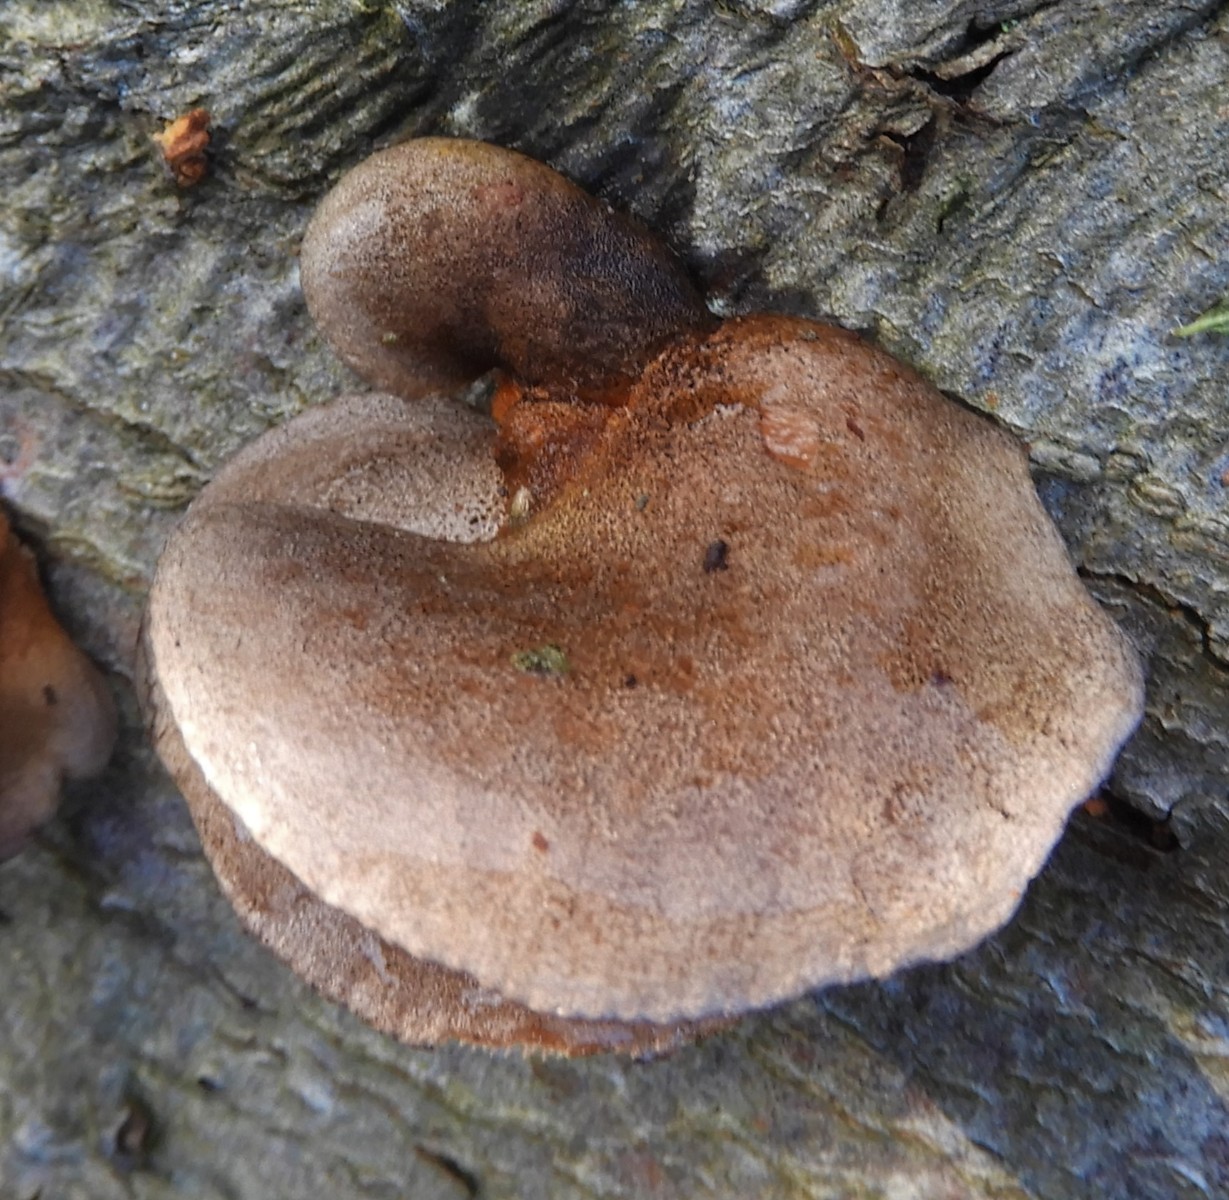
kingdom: Fungi
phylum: Basidiomycota
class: Agaricomycetes
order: Agaricales
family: Sarcomyxaceae
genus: Sarcomyxa
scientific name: Sarcomyxa serotina
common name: gummihat
